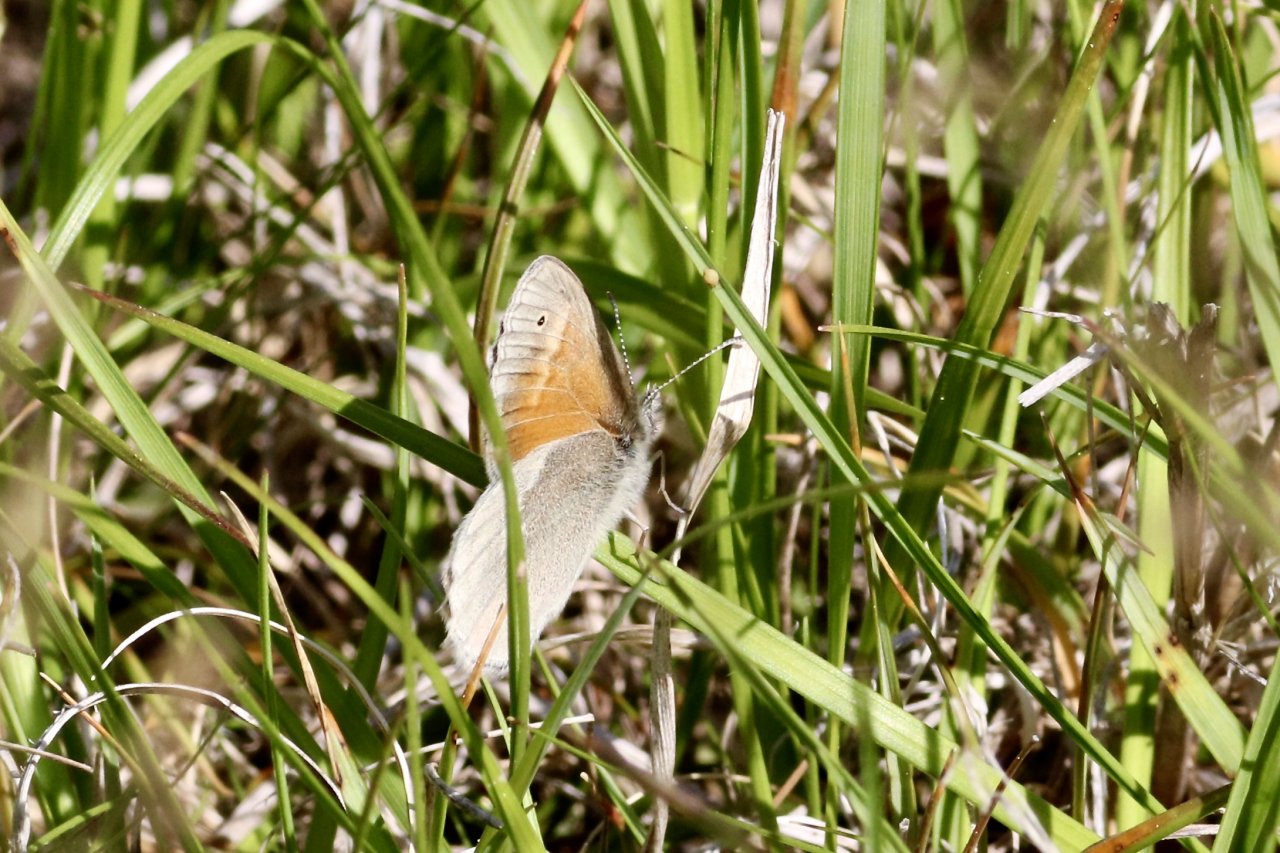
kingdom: Animalia
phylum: Arthropoda
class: Insecta
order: Lepidoptera
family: Nymphalidae
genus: Coenonympha
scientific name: Coenonympha tullia
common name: Large Heath
